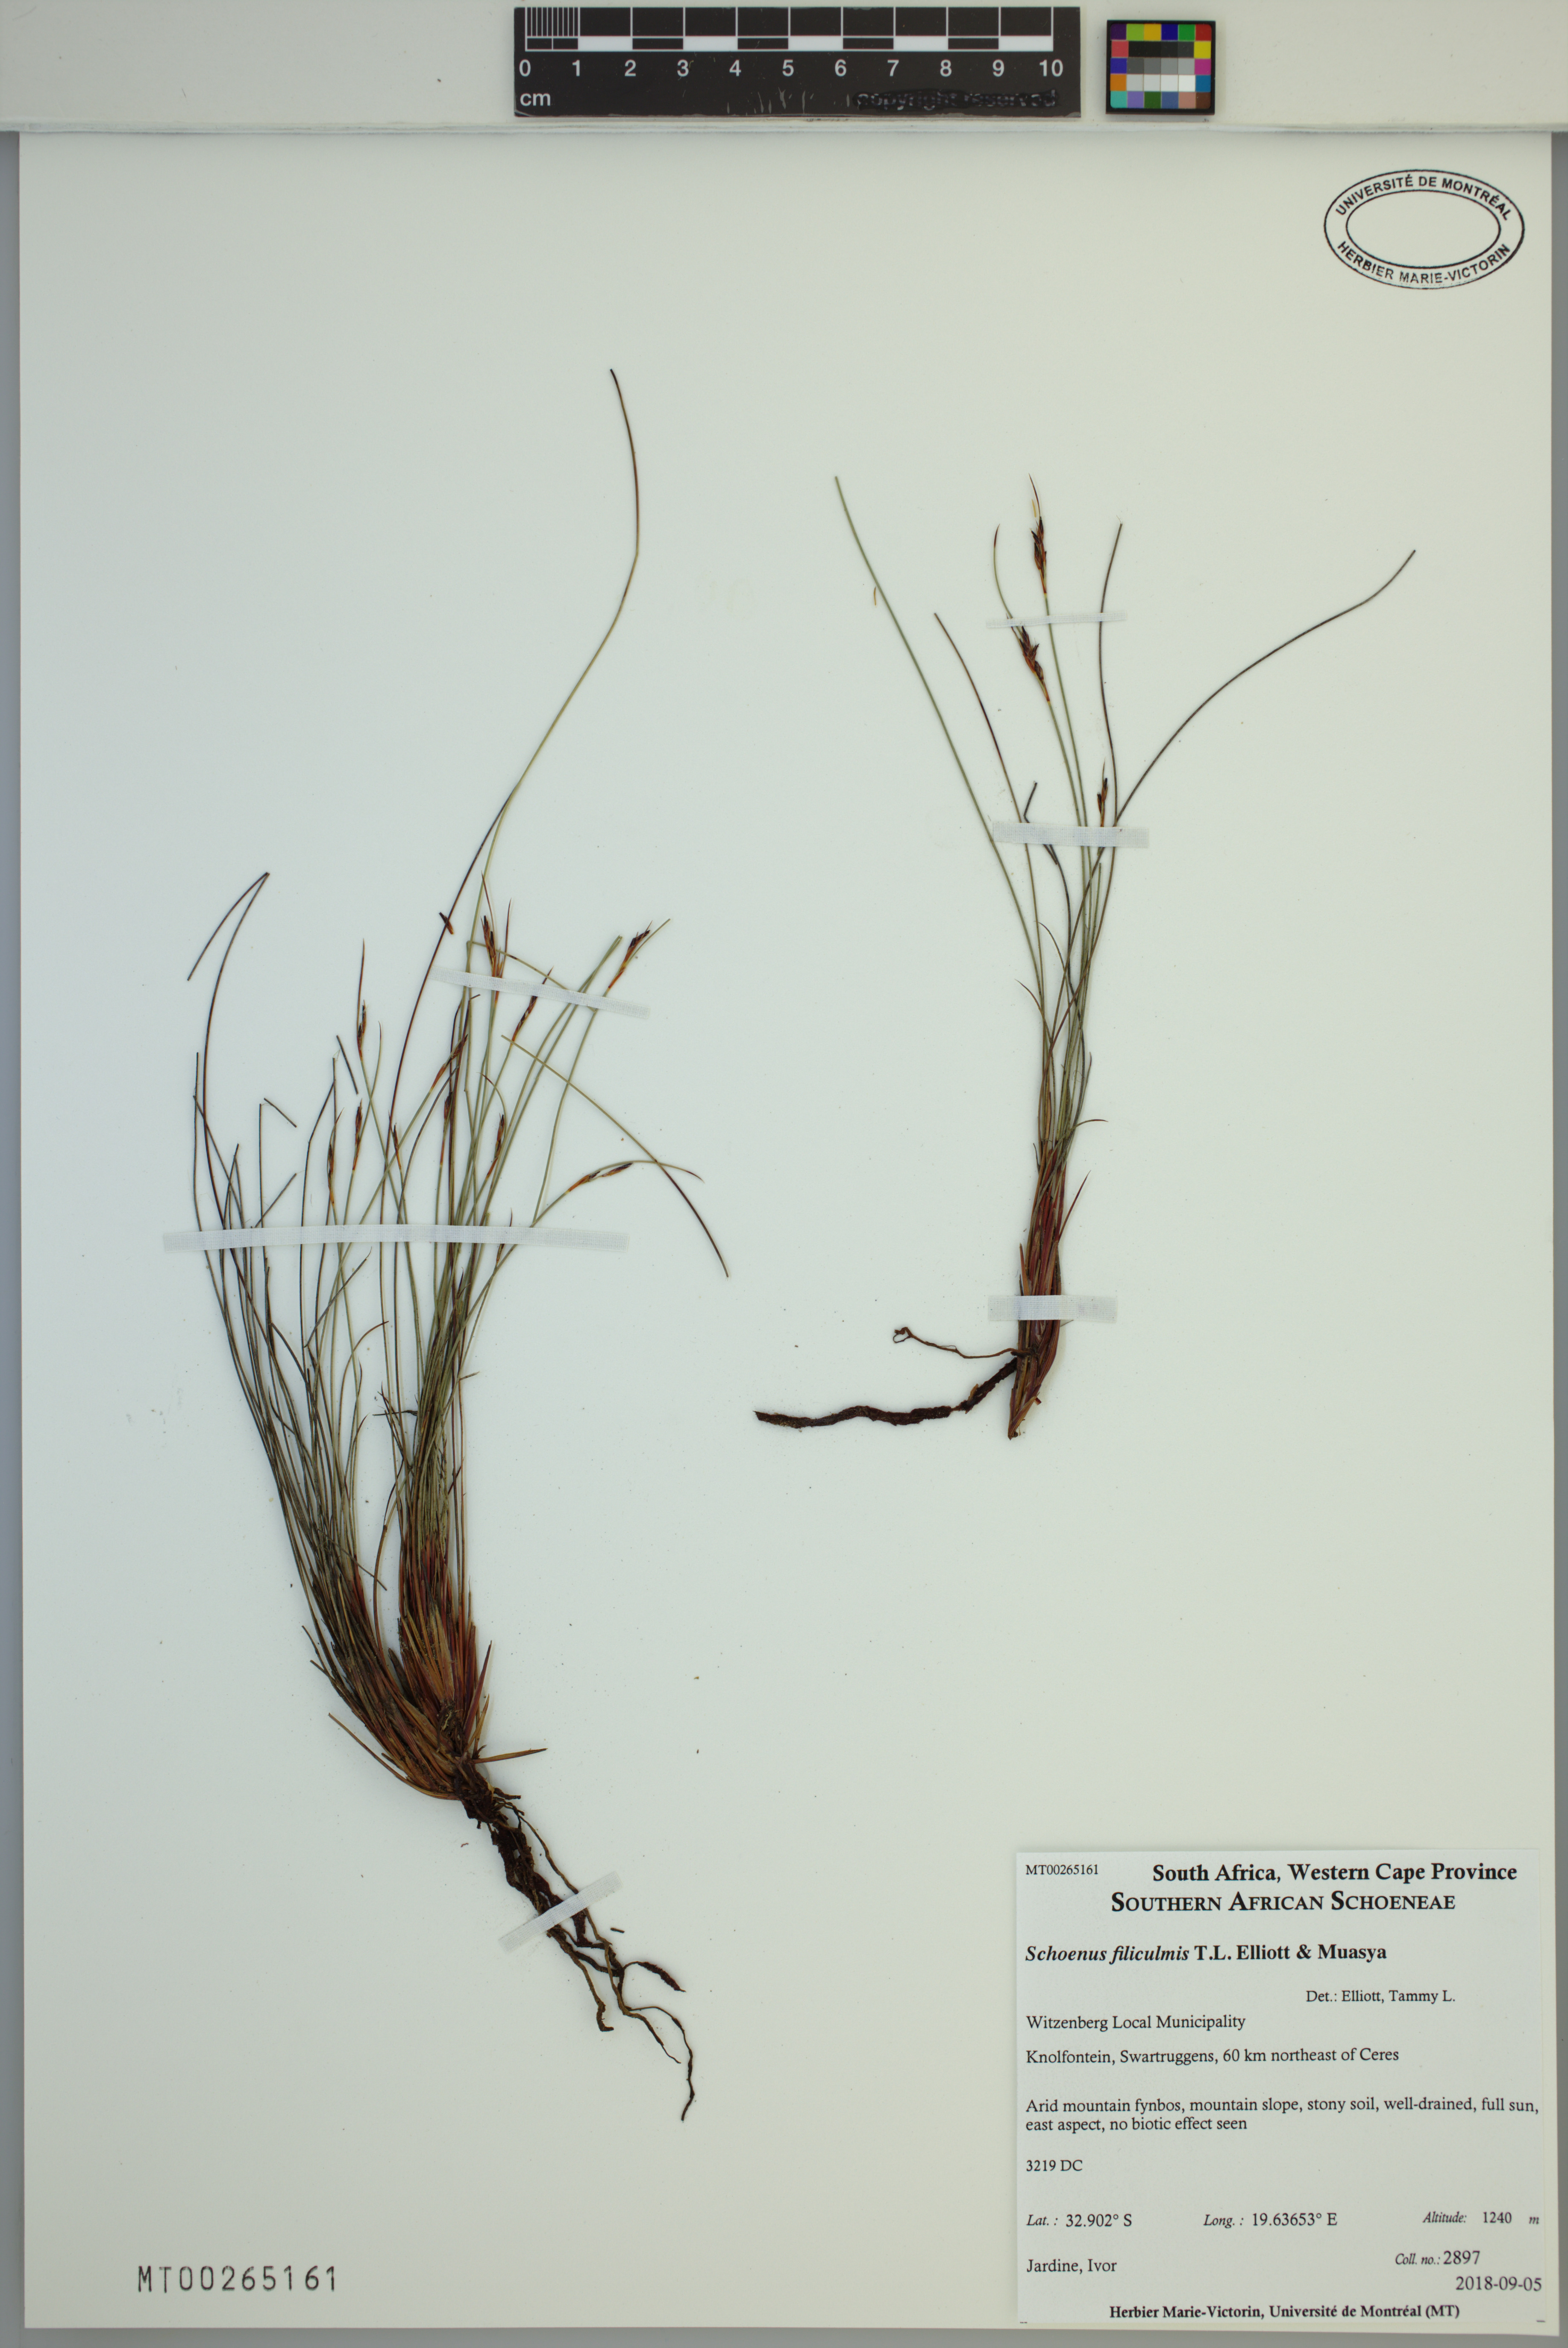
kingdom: Plantae
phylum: Tracheophyta
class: Liliopsida
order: Poales
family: Cyperaceae
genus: Schoenus
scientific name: Schoenus filiculmis
